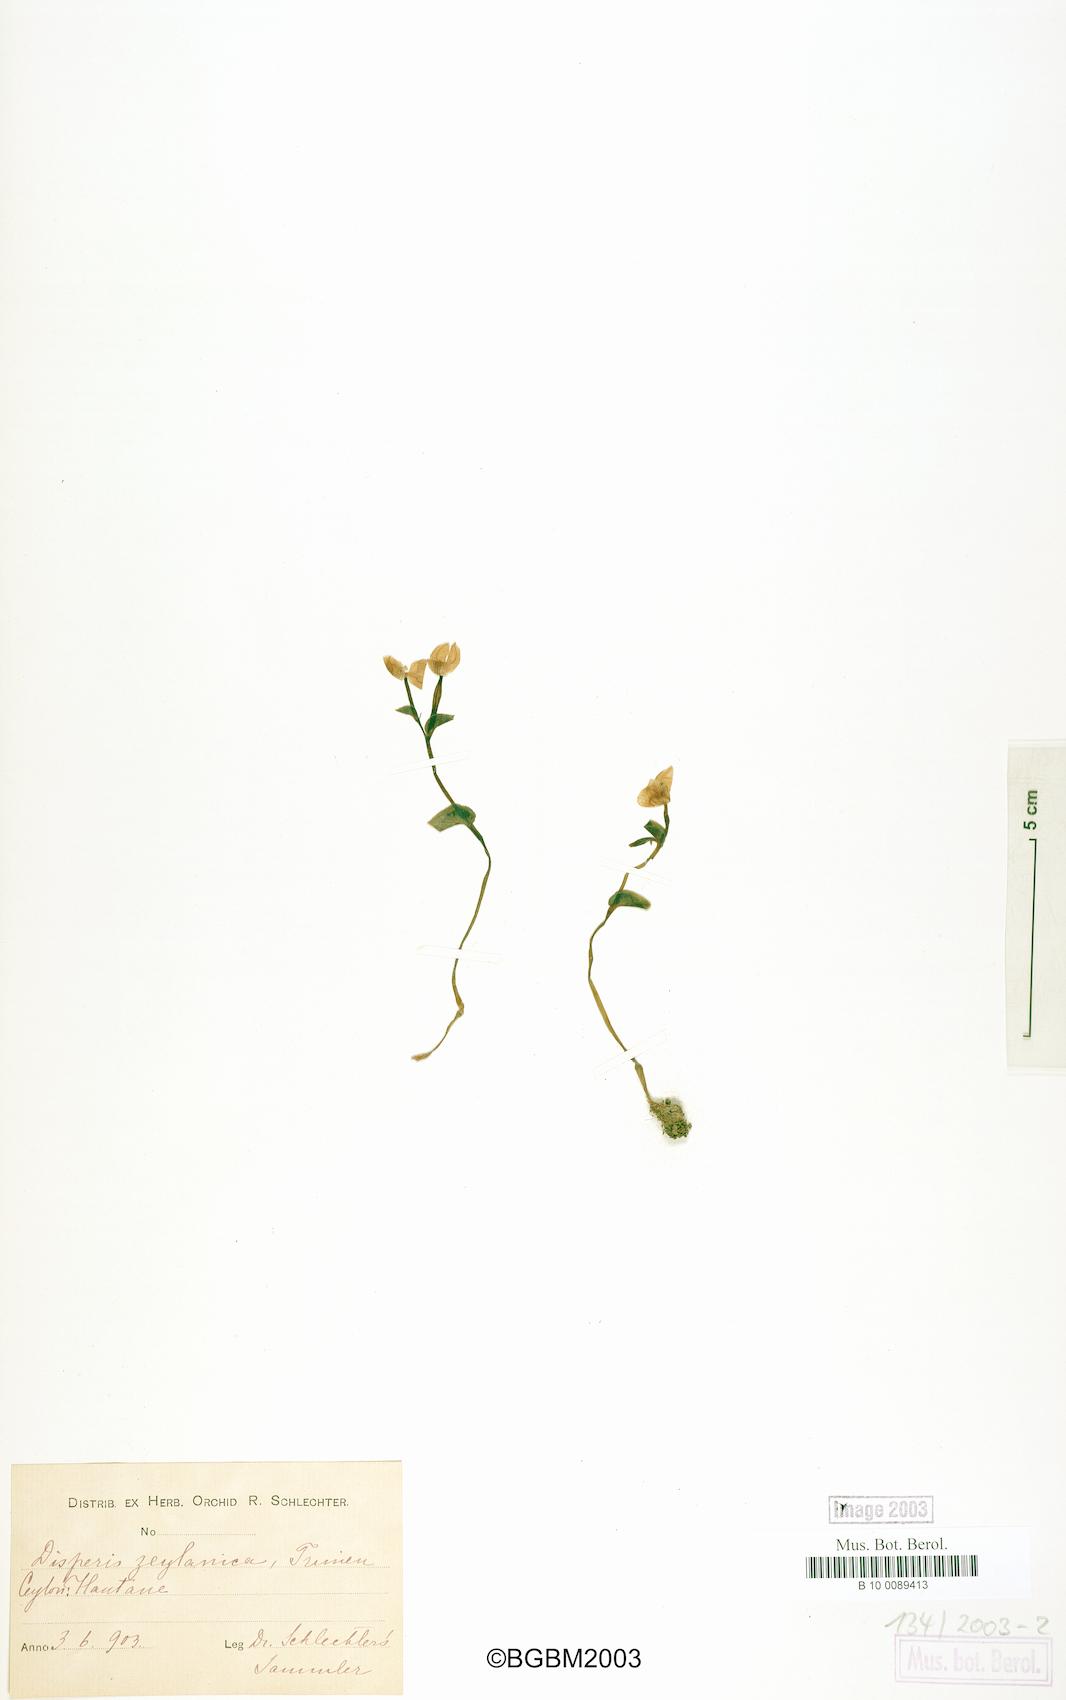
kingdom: Plantae
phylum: Tracheophyta
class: Liliopsida
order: Asparagales
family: Orchidaceae
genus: Disperis
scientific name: Disperis neilgherrensis
